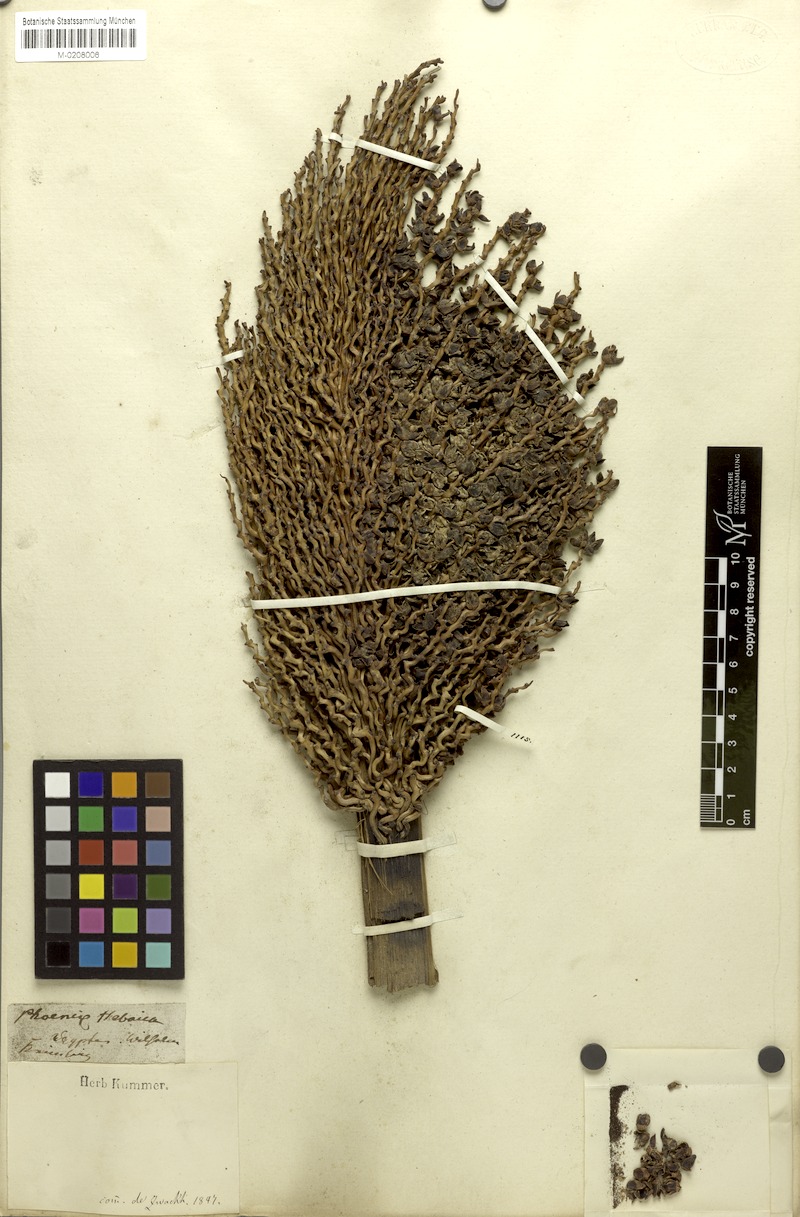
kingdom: Plantae
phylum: Tracheophyta
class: Liliopsida
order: Arecales
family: Arecaceae
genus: Phoenix
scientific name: Phoenix dactylifera
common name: Date palm
